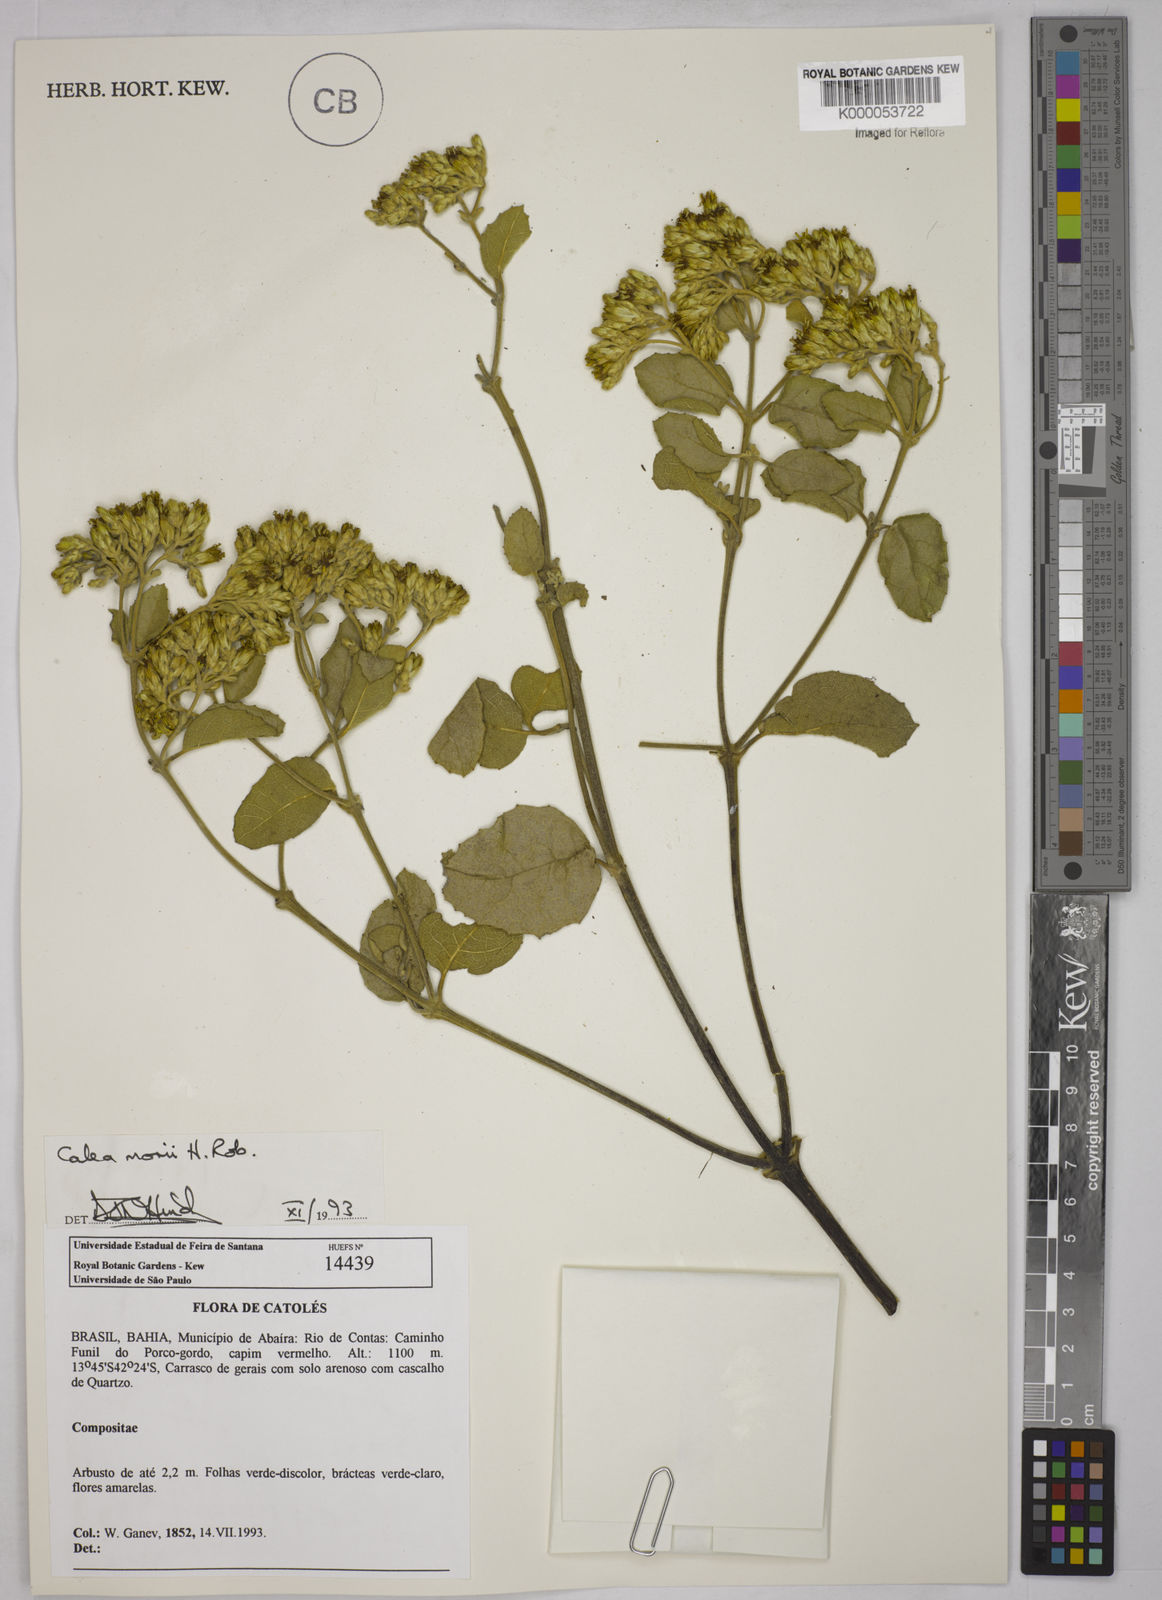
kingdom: Plantae
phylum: Tracheophyta
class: Magnoliopsida
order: Asterales
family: Asteraceae
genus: Calea
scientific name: Calea morii
